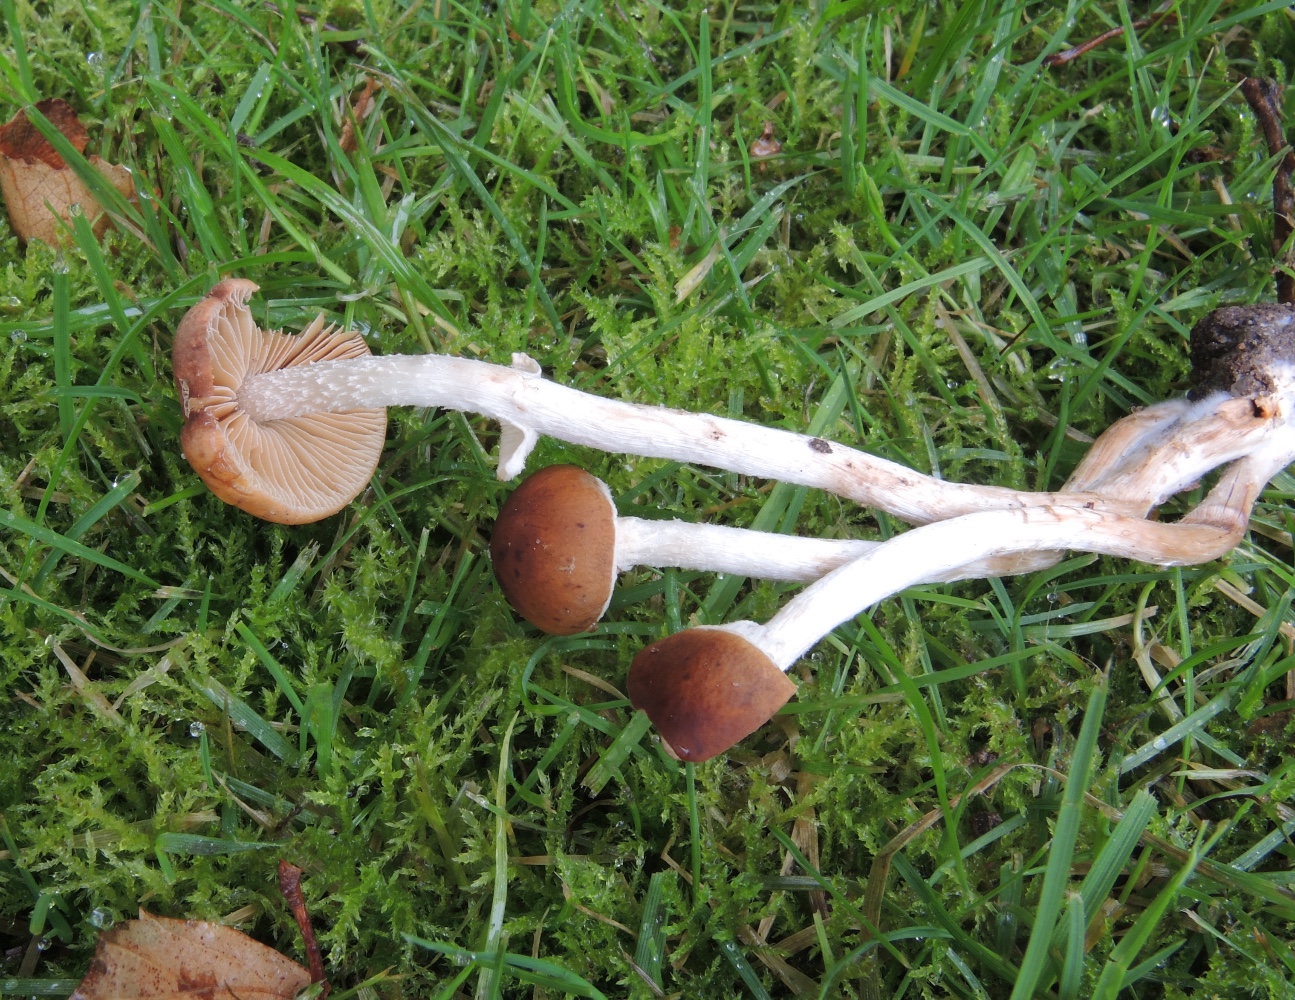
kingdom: Fungi
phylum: Basidiomycota
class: Agaricomycetes
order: Agaricales
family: Bolbitiaceae
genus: Pholiotina
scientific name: Pholiotina
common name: dansehat
